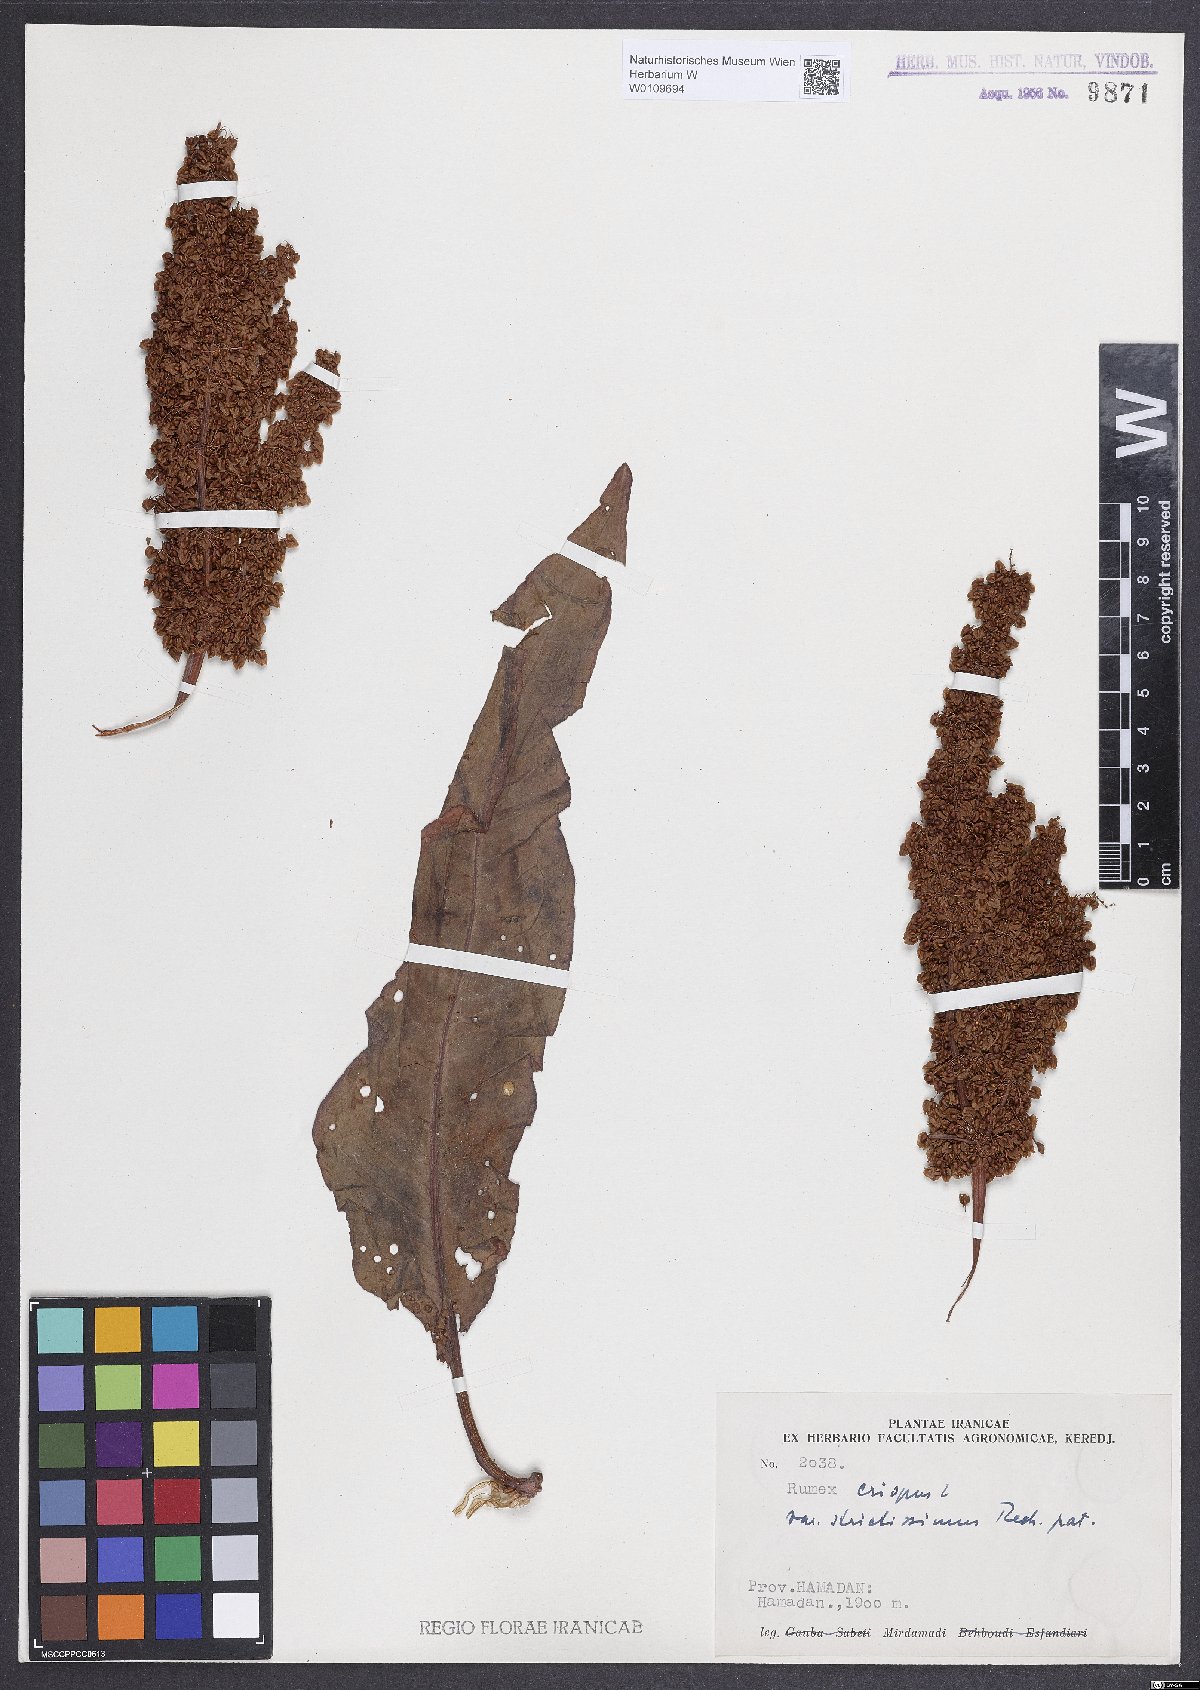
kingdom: Plantae
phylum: Tracheophyta
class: Magnoliopsida
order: Caryophyllales
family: Polygonaceae
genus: Rumex
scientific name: Rumex crispus
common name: Curled dock
